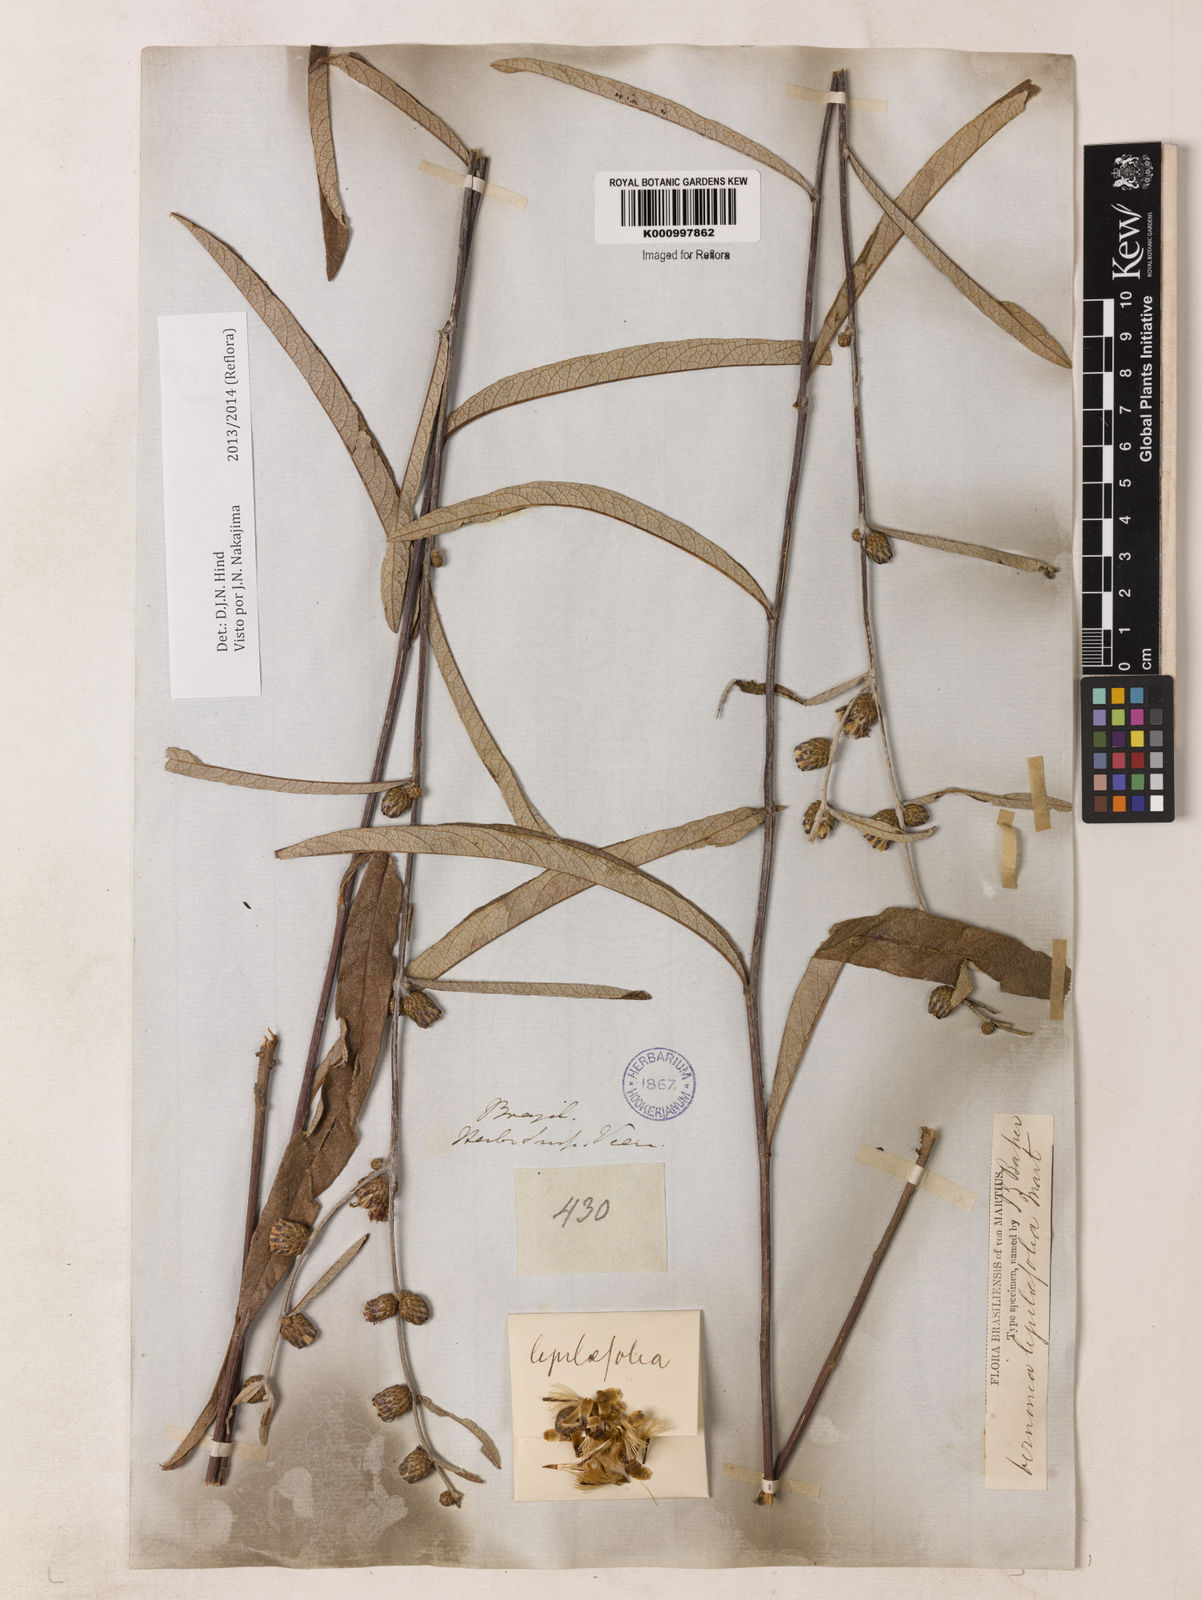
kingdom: Plantae
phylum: Tracheophyta
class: Magnoliopsida
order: Asterales
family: Asteraceae
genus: Lessingianthus
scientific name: Lessingianthus ligulifolius
